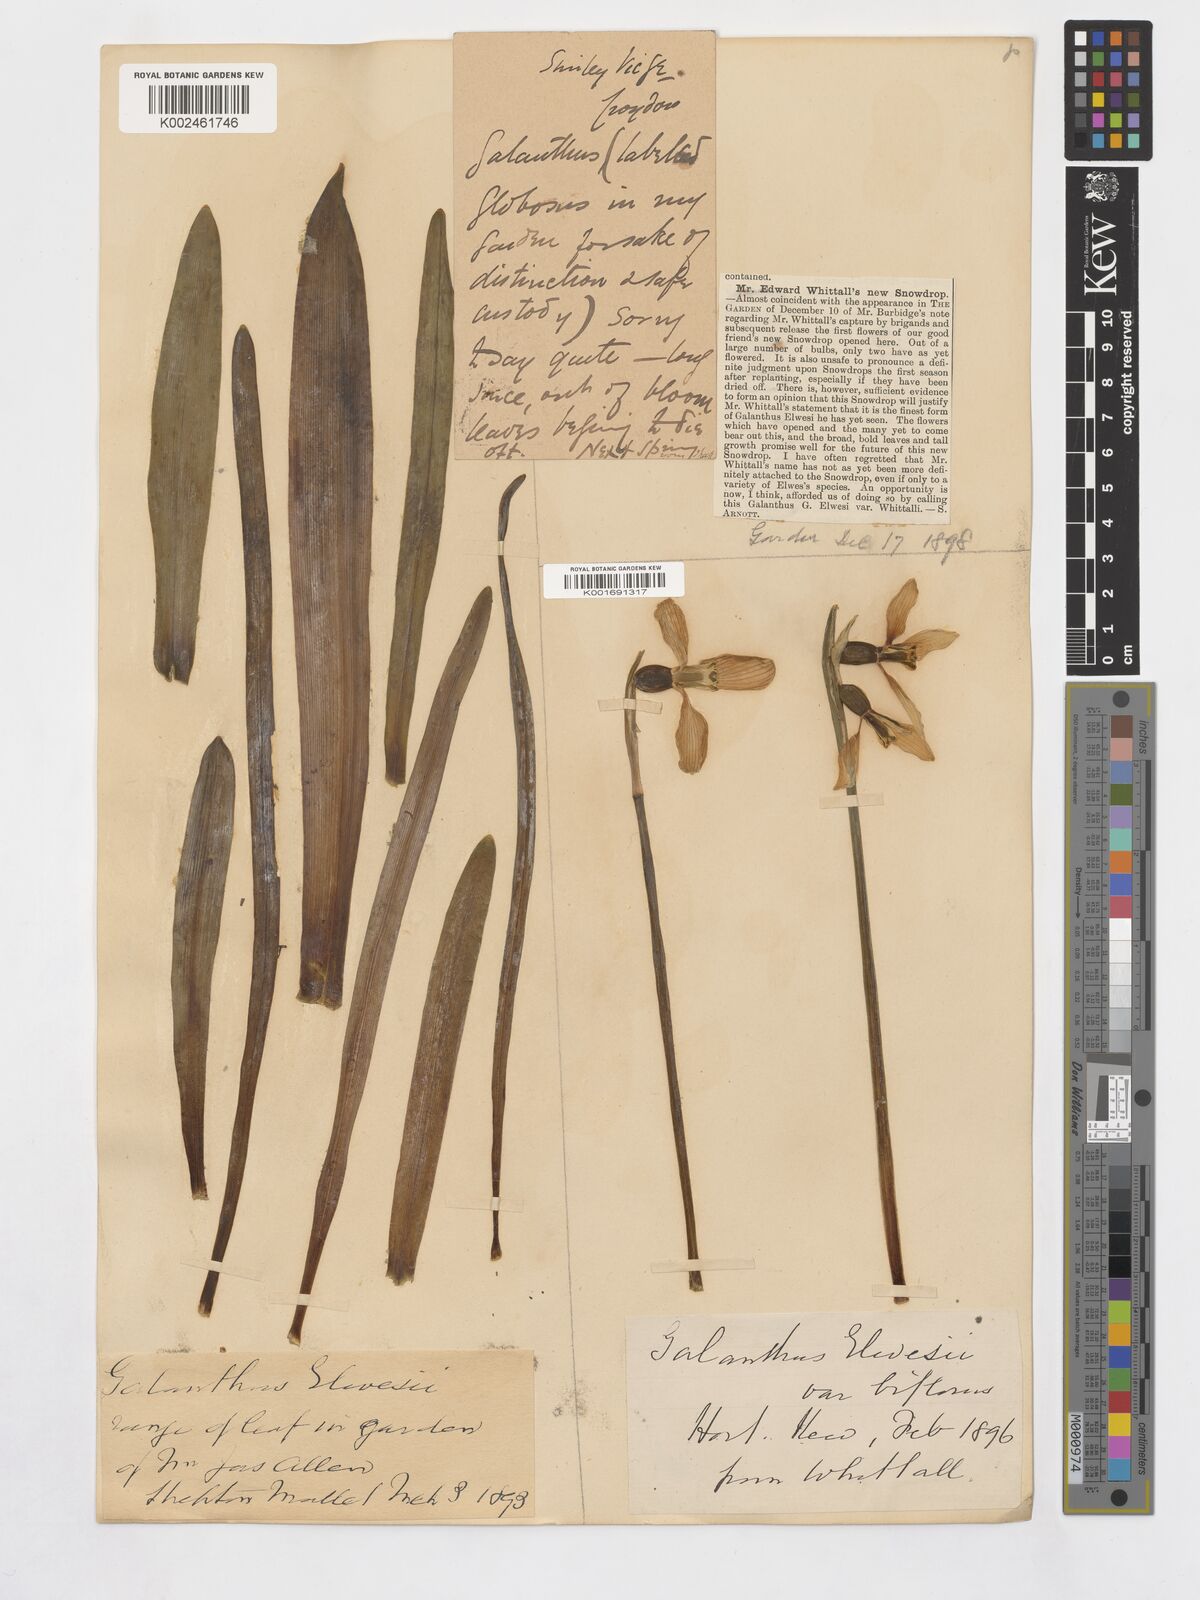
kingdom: Plantae
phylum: Tracheophyta
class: Liliopsida
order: Asparagales
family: Amaryllidaceae
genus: Galanthus
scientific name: Galanthus elwesii
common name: Greater snowdrop
